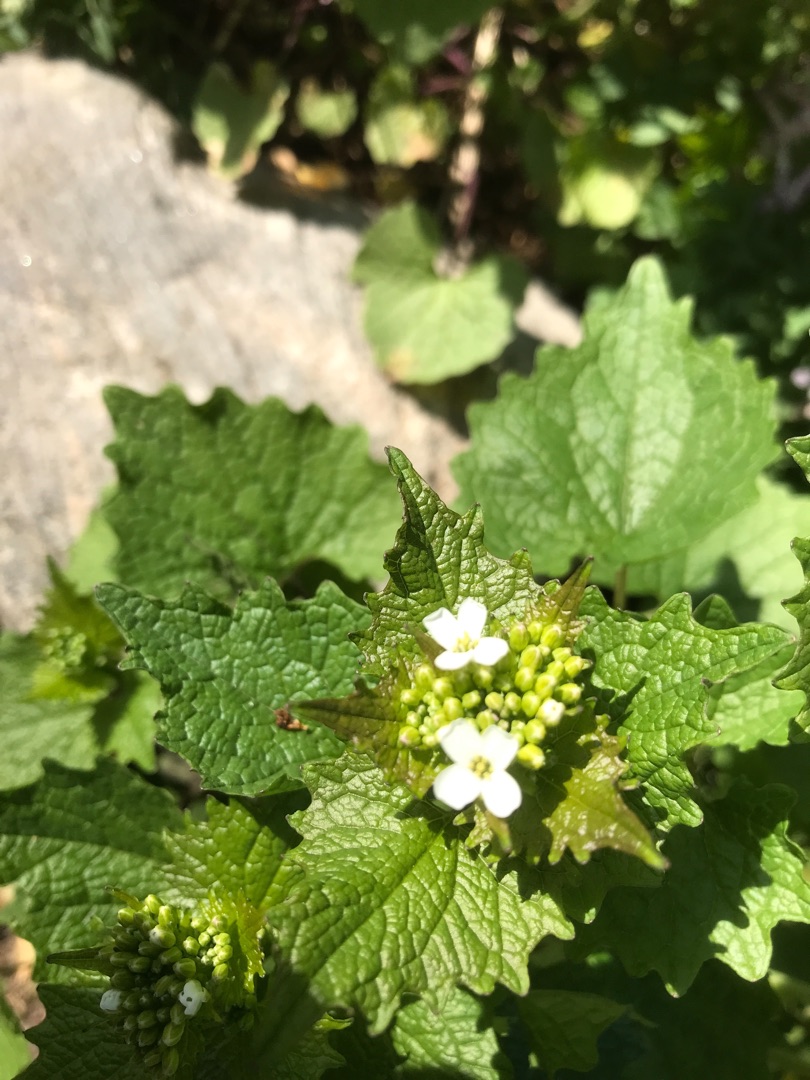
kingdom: Plantae
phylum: Tracheophyta
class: Magnoliopsida
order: Brassicales
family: Brassicaceae
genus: Alliaria
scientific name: Alliaria petiolata
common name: Løgkarse
